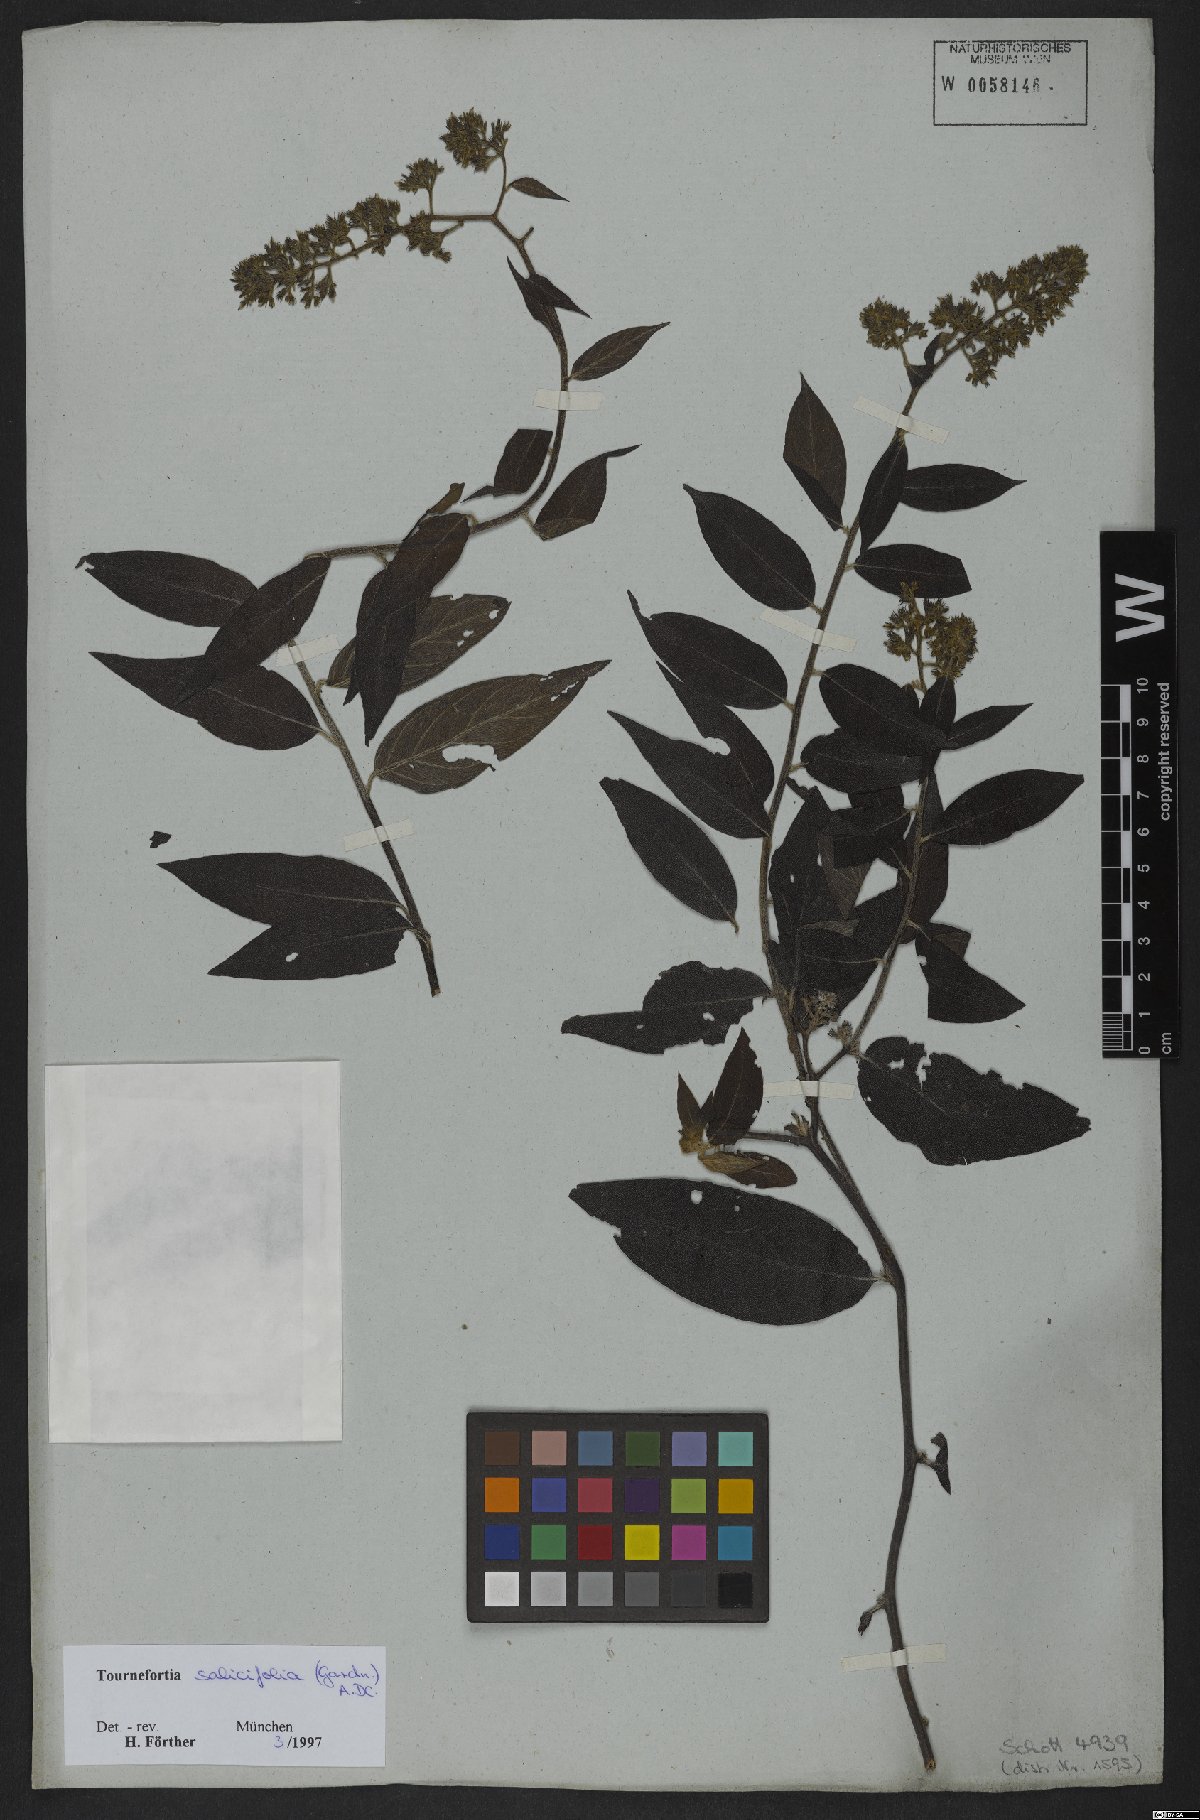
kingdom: Plantae
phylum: Tracheophyta
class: Magnoliopsida
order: Boraginales
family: Heliotropiaceae
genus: Myriopus
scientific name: Myriopus salicifolius
